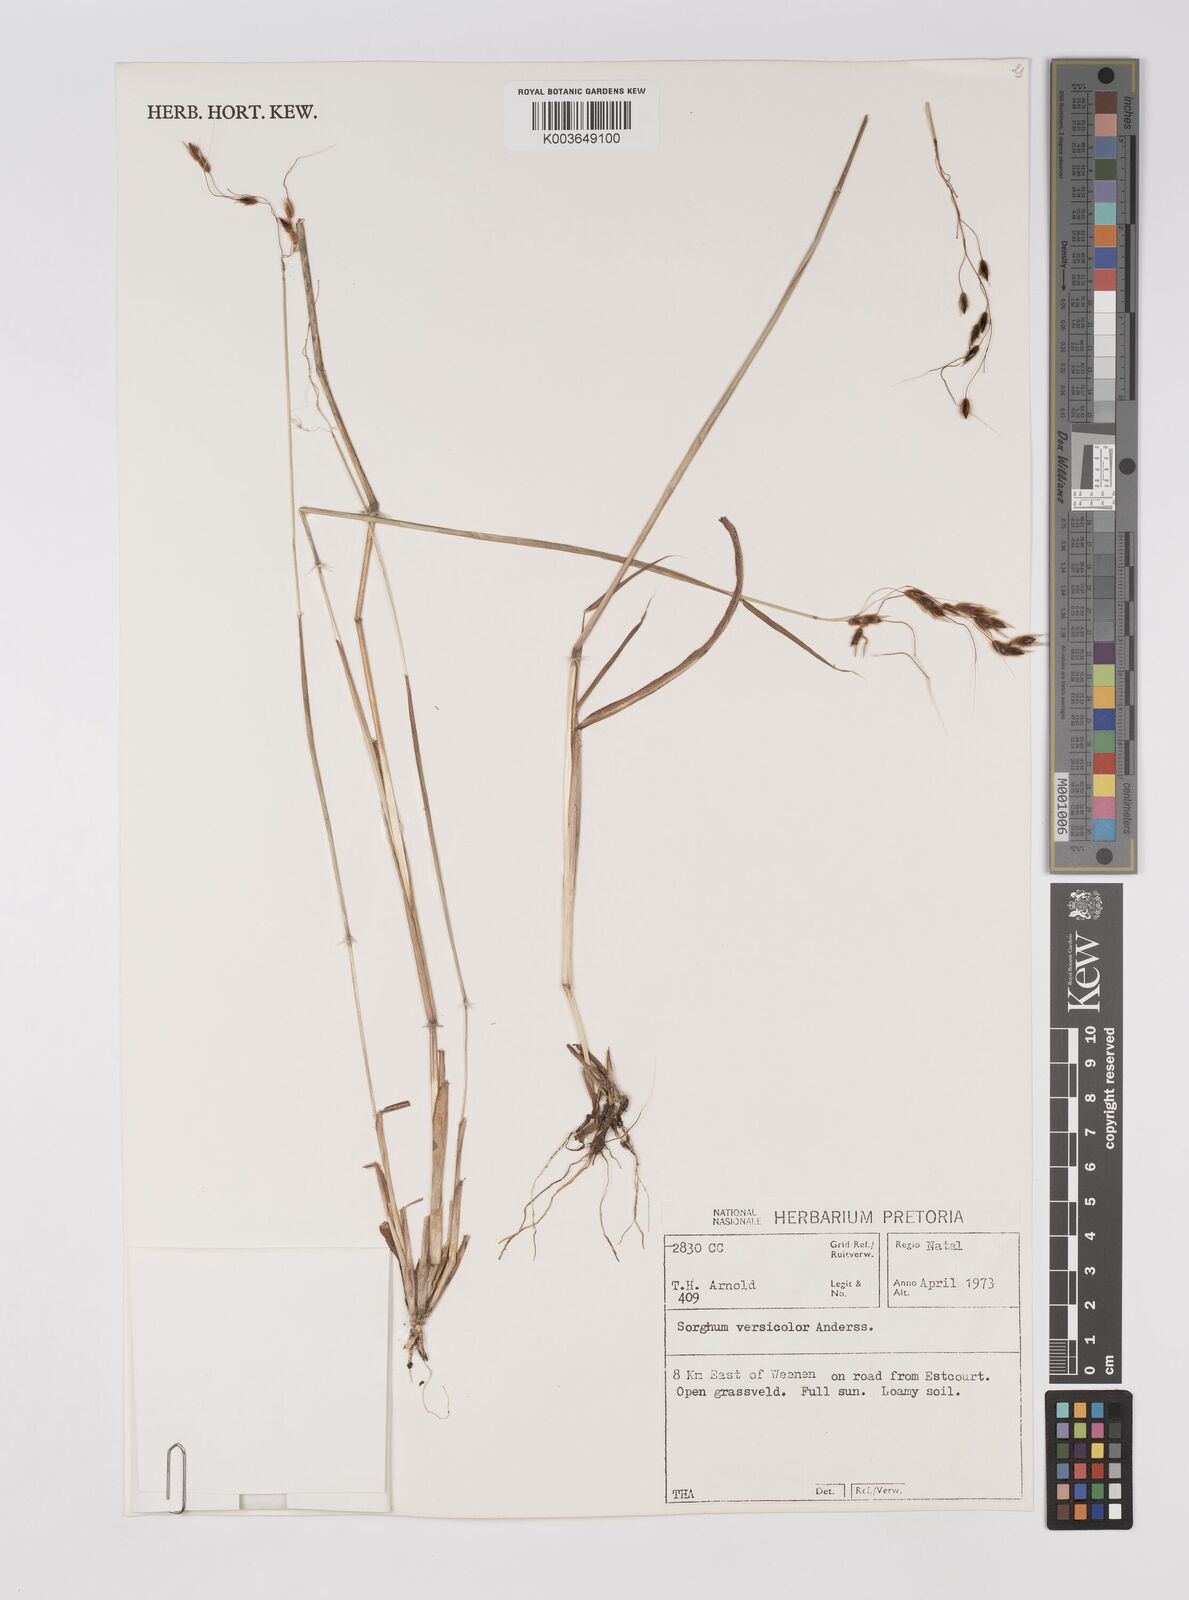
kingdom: Plantae
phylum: Tracheophyta
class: Liliopsida
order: Poales
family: Poaceae
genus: Sarga
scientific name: Sarga versicolor
